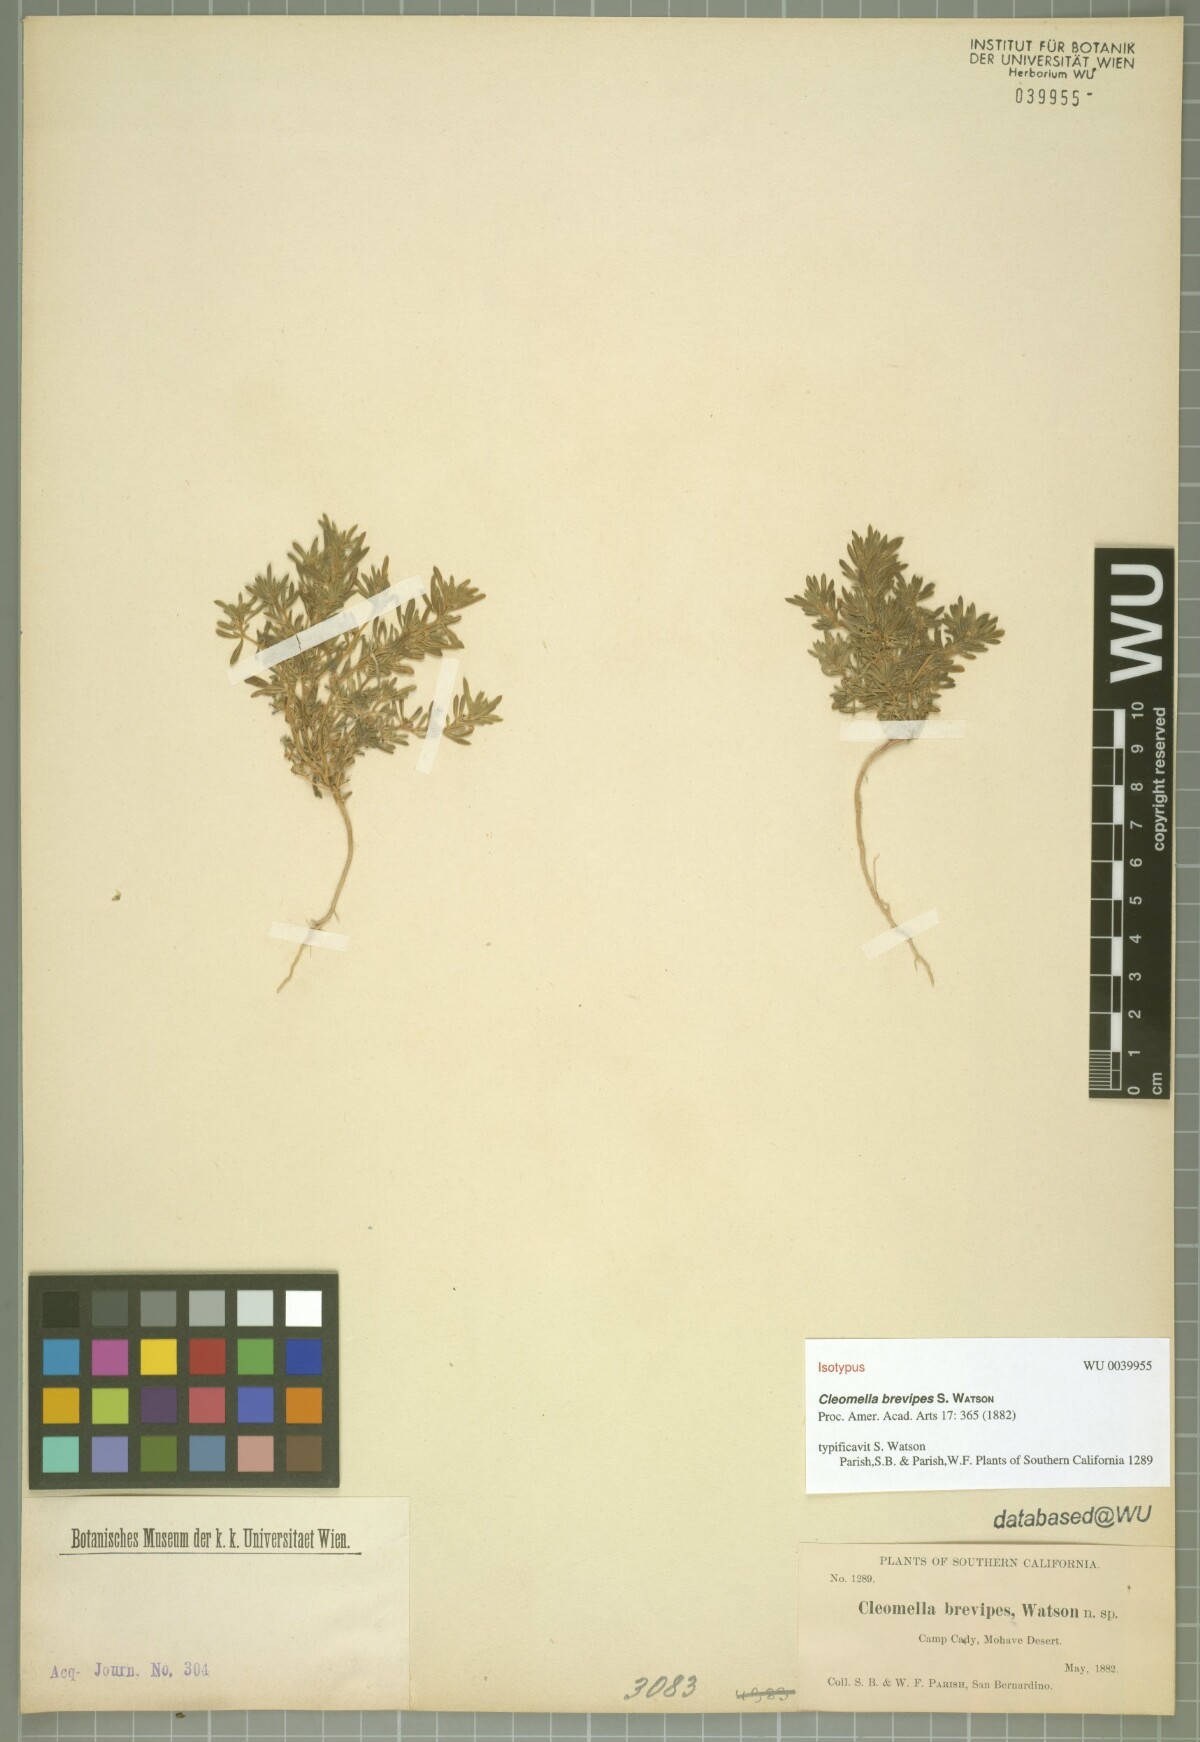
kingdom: Plantae
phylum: Tracheophyta
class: Magnoliopsida
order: Brassicales
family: Cleomaceae
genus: Cleomella
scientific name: Cleomella brevipes
